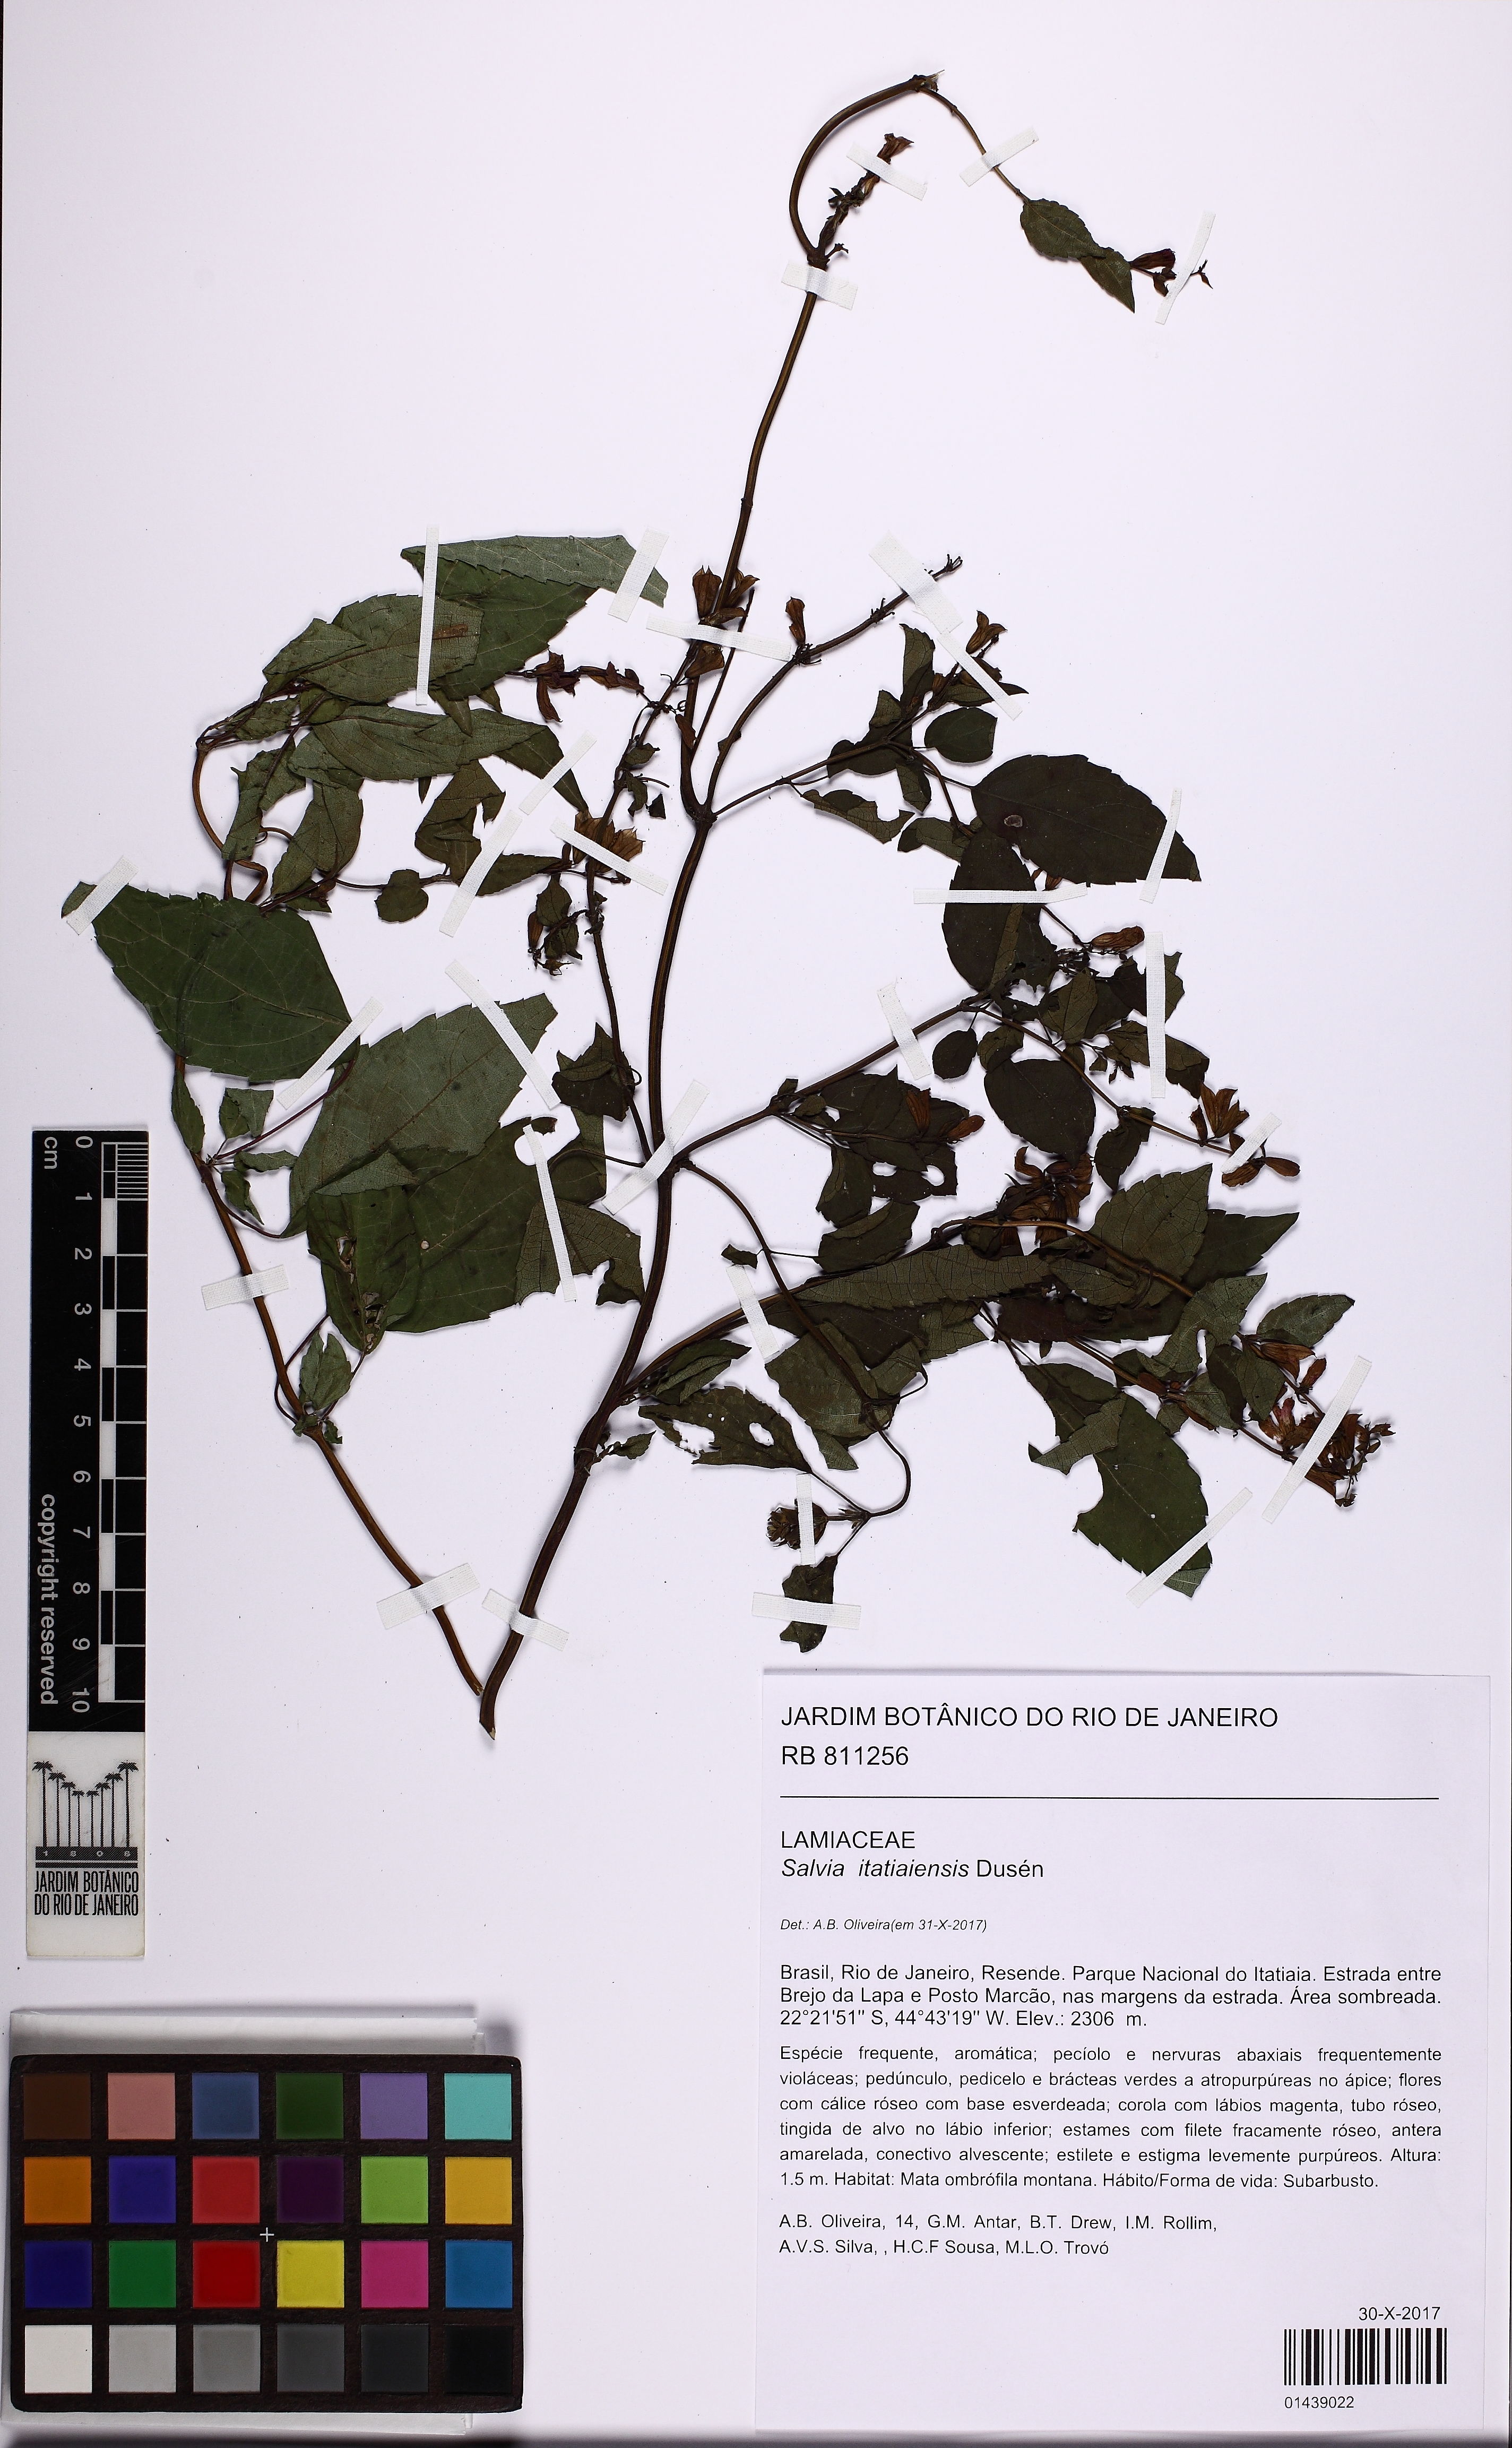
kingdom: Plantae
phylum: Tracheophyta
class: Magnoliopsida
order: Lamiales
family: Lamiaceae
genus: Salvia
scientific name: Salvia itatiaiensis
